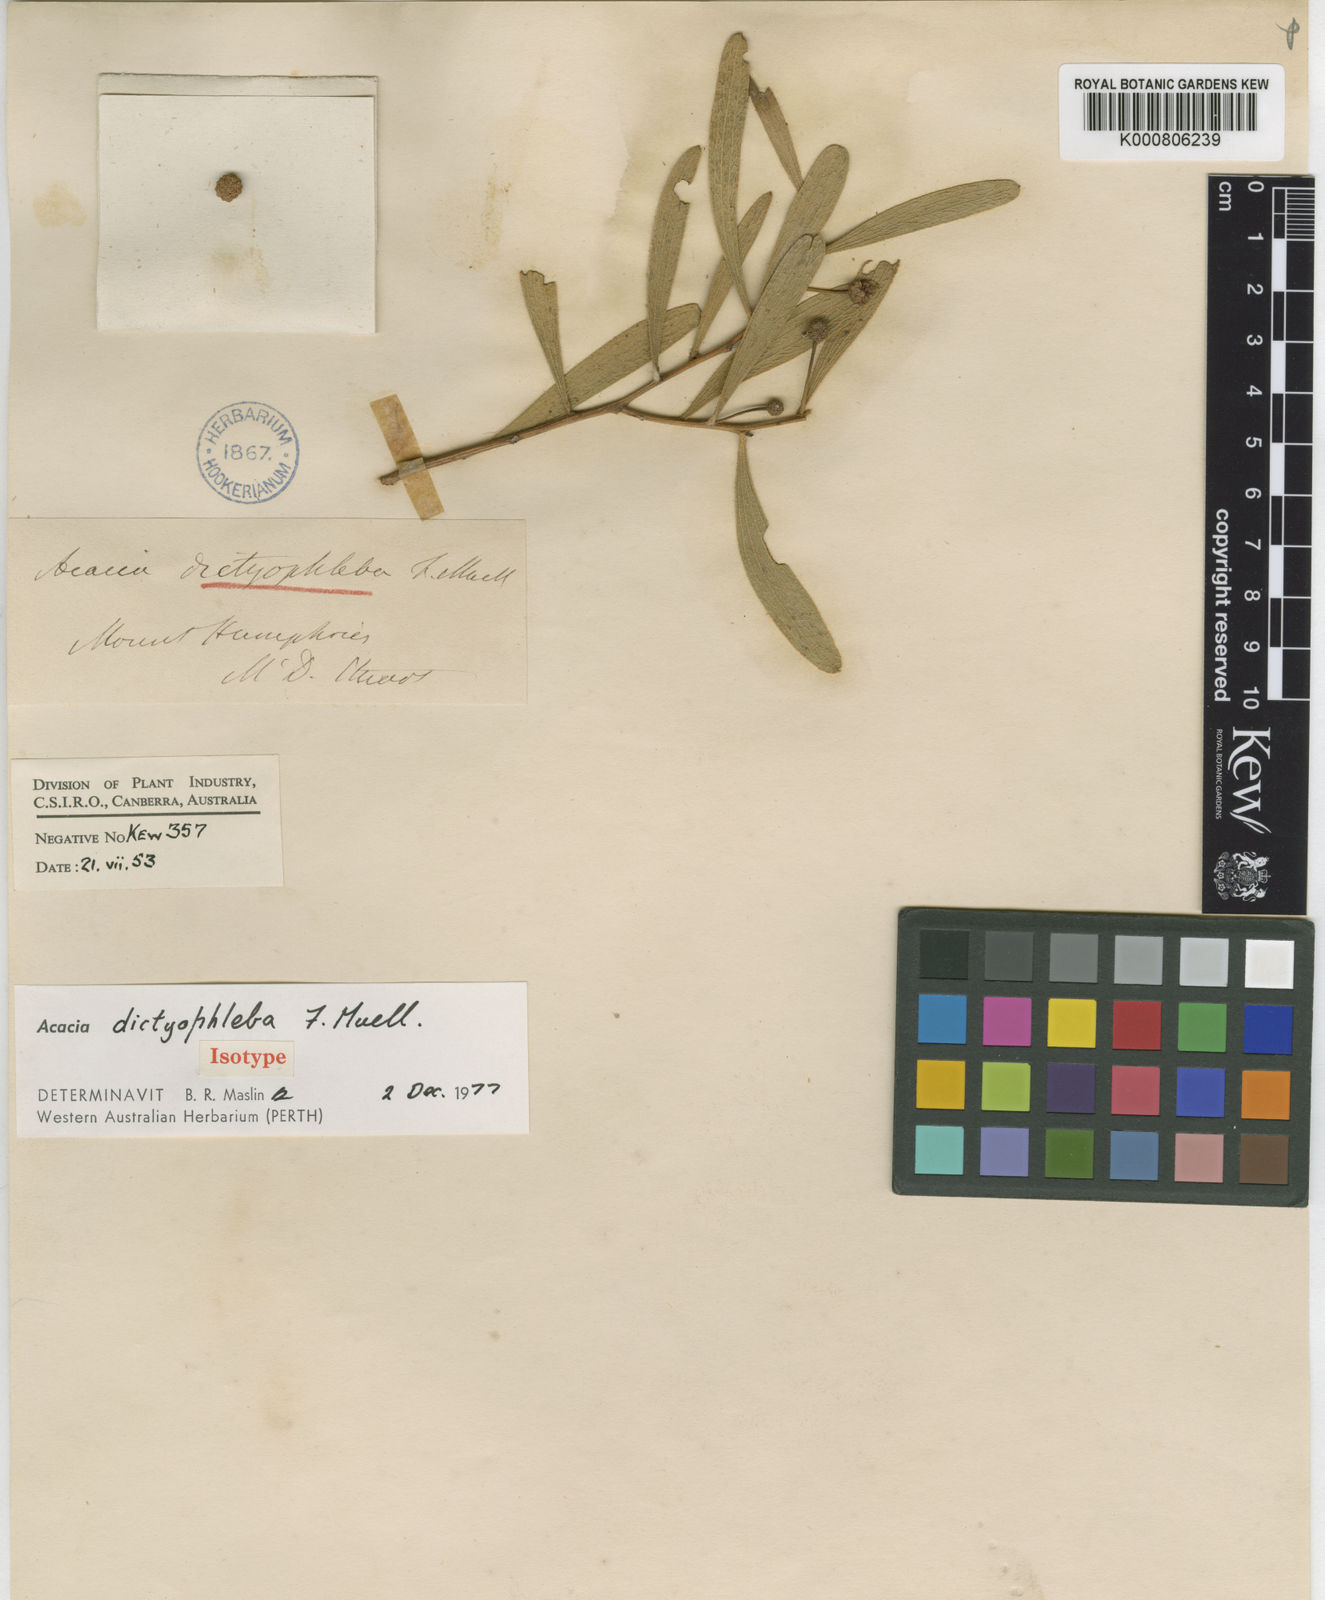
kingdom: Plantae
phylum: Tracheophyta
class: Magnoliopsida
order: Fabales
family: Fabaceae
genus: Acacia
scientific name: Acacia dictyophleba
